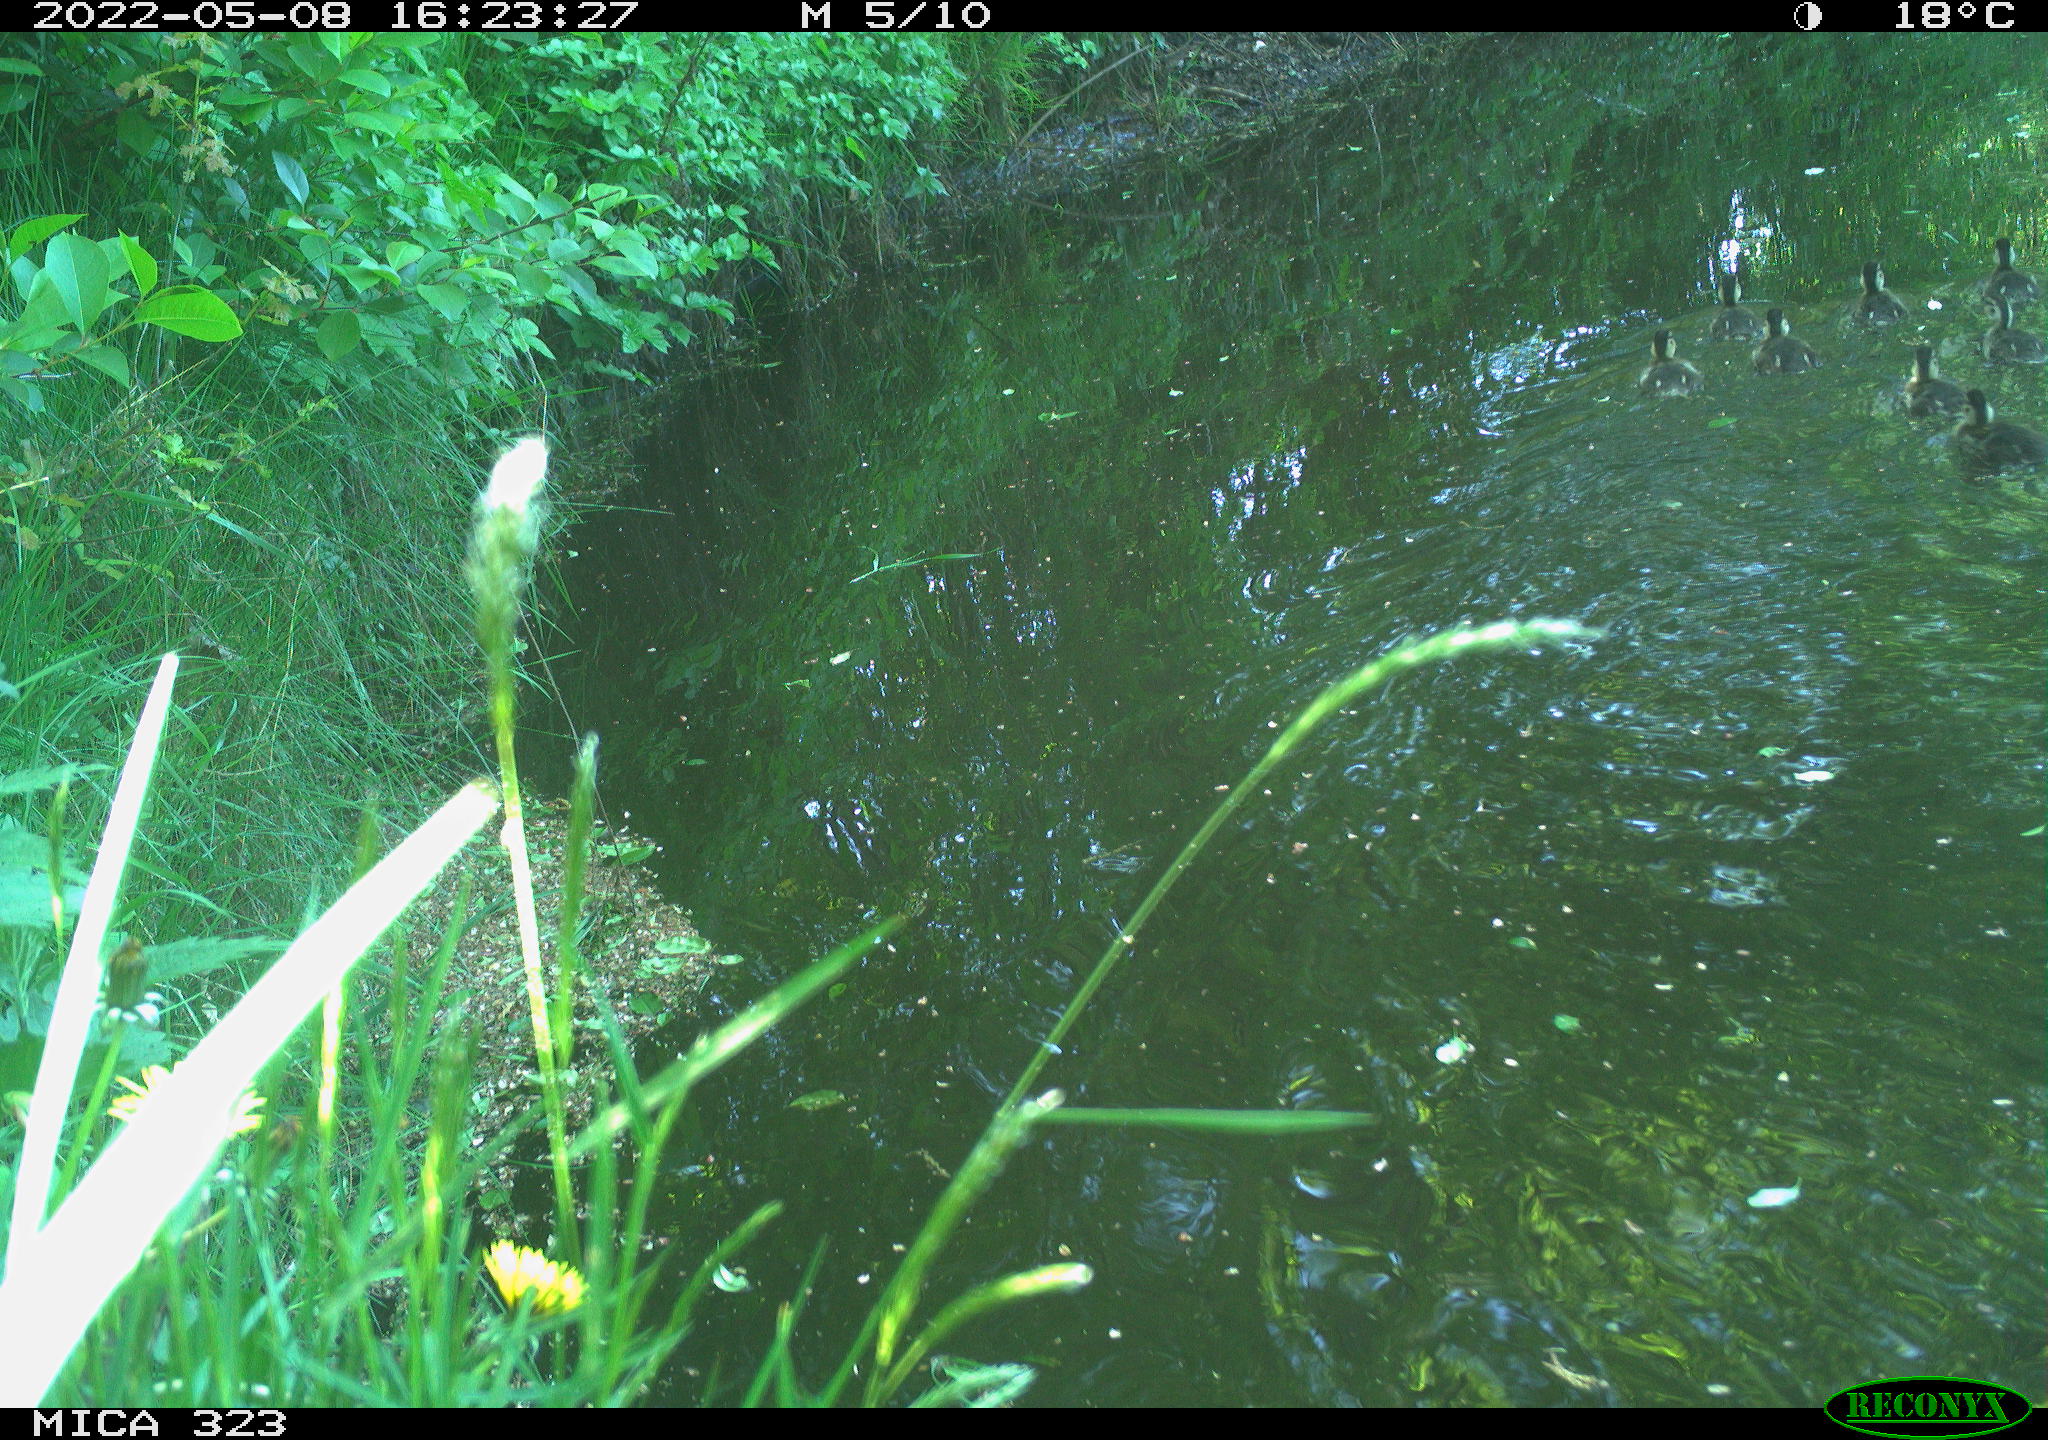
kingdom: Animalia
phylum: Chordata
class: Aves
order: Anseriformes
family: Anatidae
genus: Anas
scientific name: Anas
